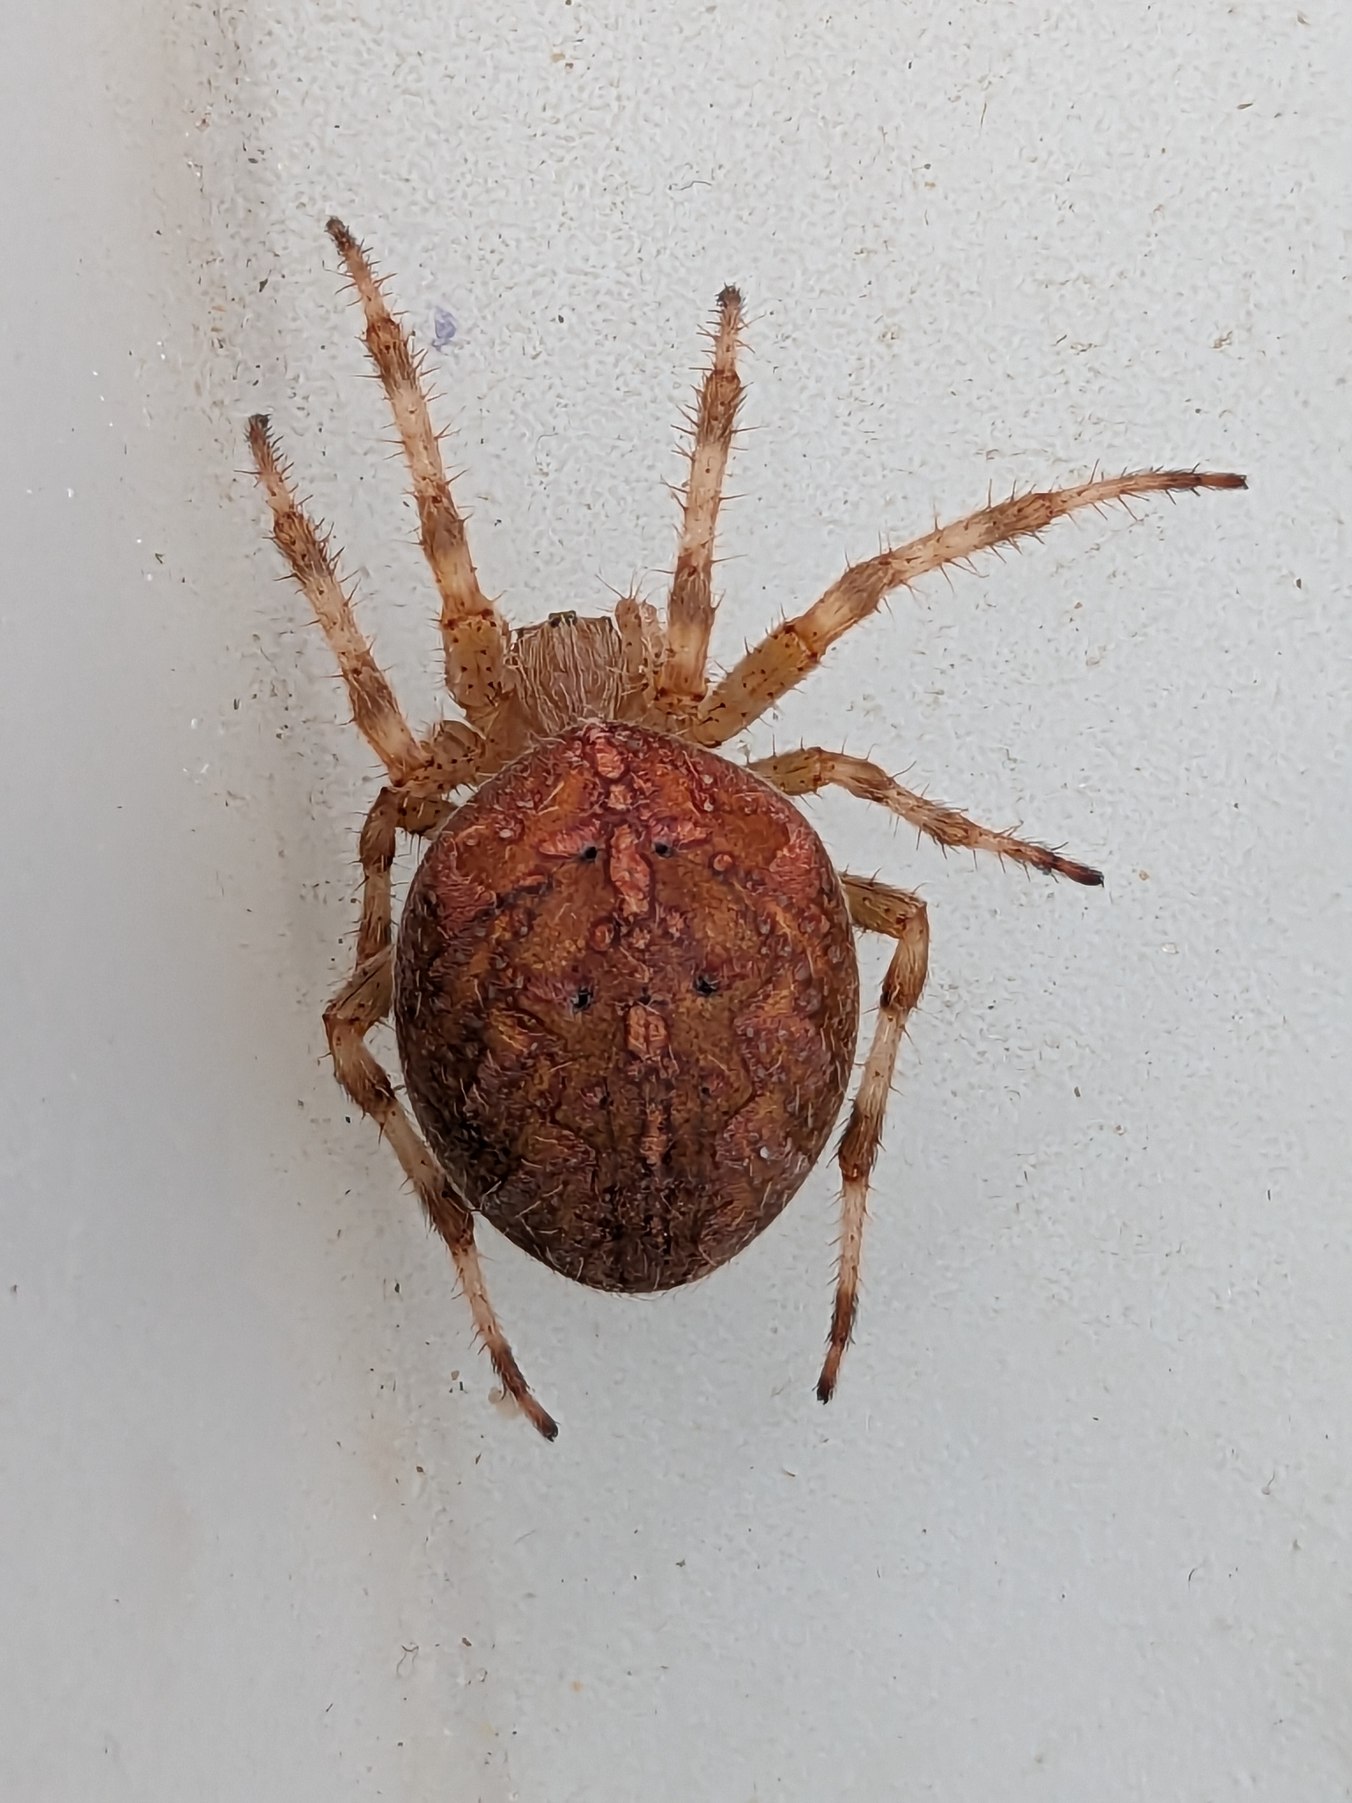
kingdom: Animalia
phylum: Arthropoda
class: Arachnida
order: Araneae
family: Araneidae
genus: Araneus
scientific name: Araneus diadematus
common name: Korsedderkop
